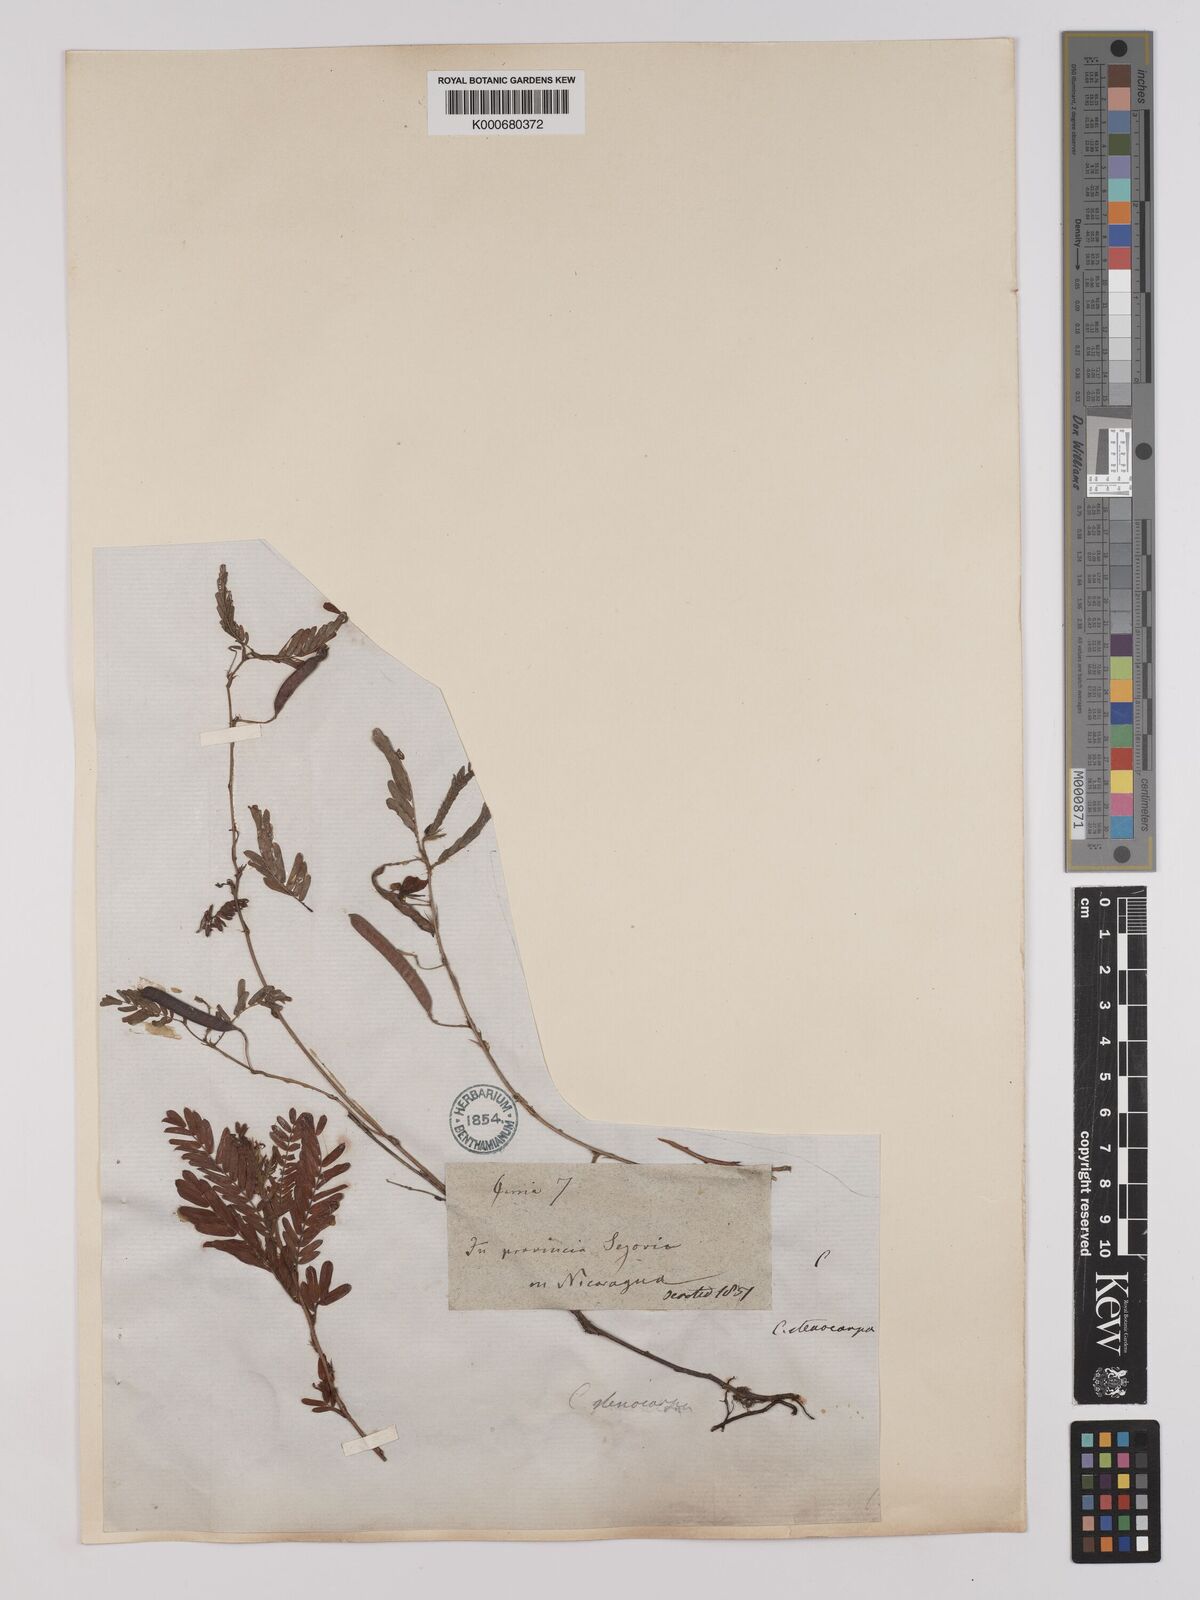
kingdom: Plantae
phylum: Tracheophyta
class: Magnoliopsida
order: Fabales
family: Fabaceae
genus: Chamaecrista
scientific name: Chamaecrista nictitans
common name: Sensitive cassia
